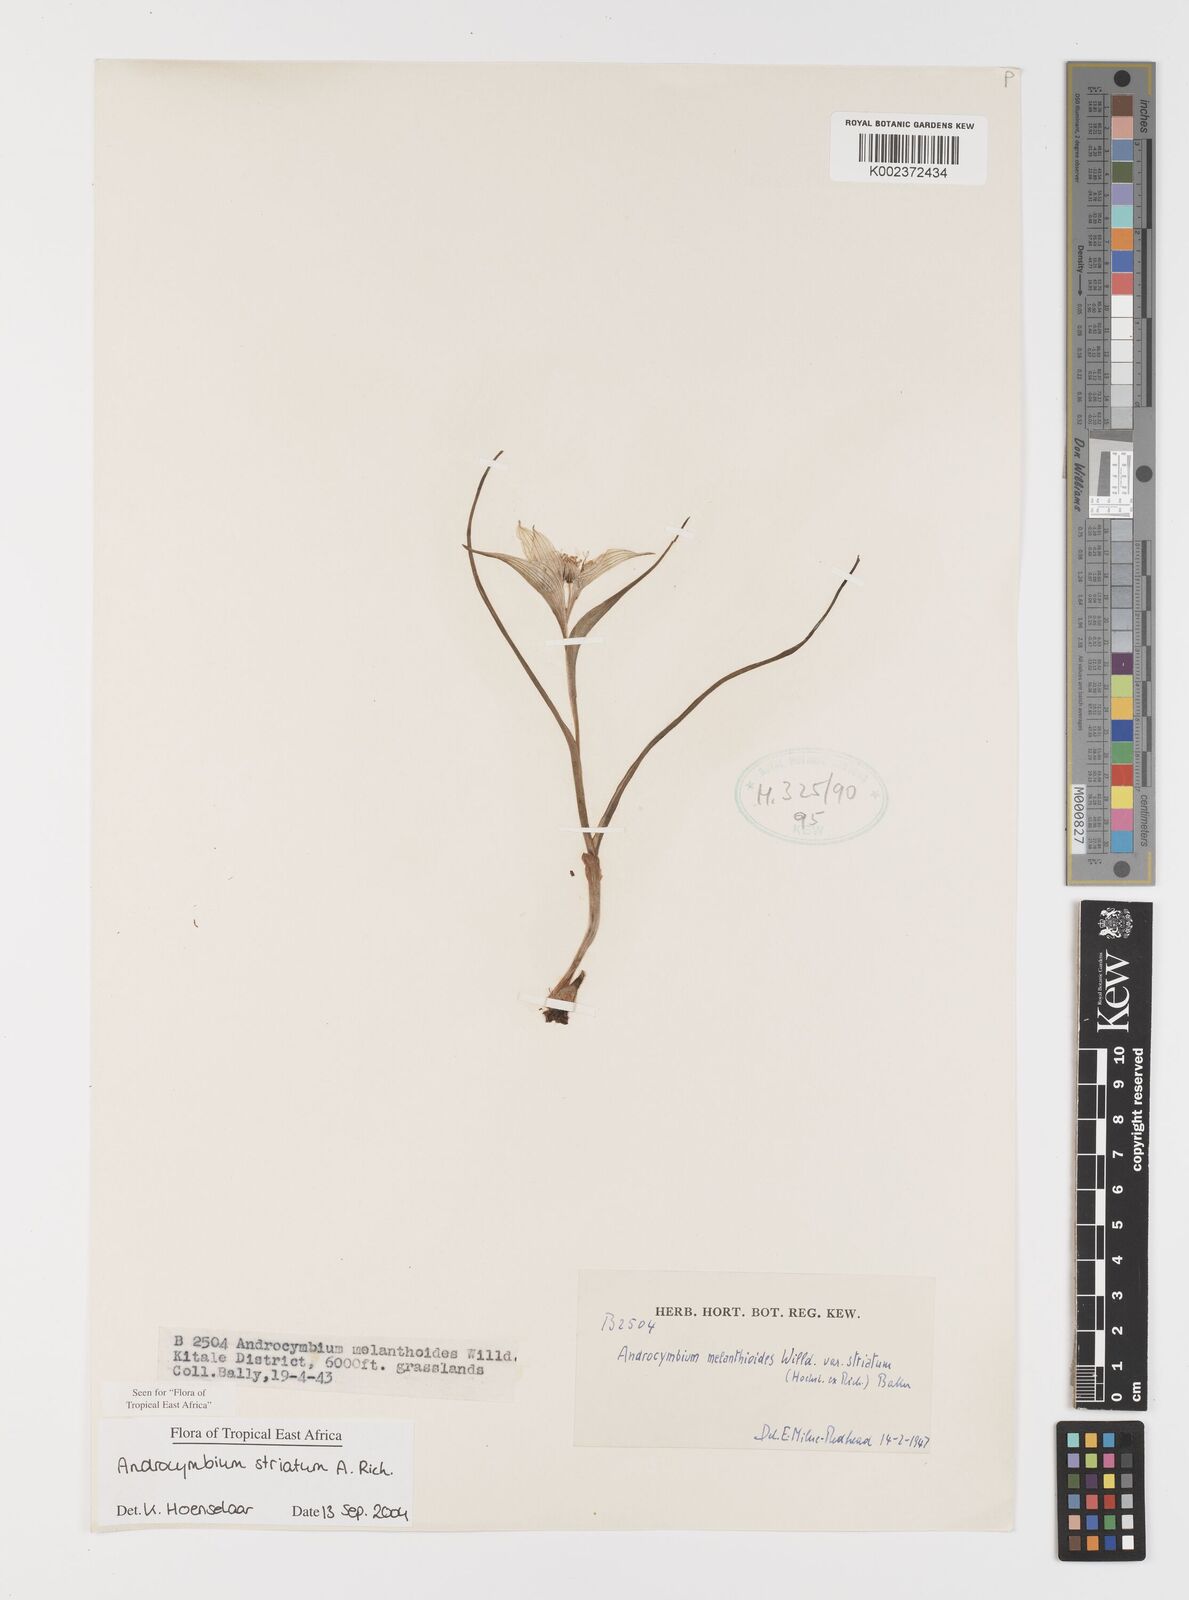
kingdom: Plantae
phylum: Tracheophyta
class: Liliopsida
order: Liliales
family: Colchicaceae
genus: Colchicum
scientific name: Colchicum striatum
